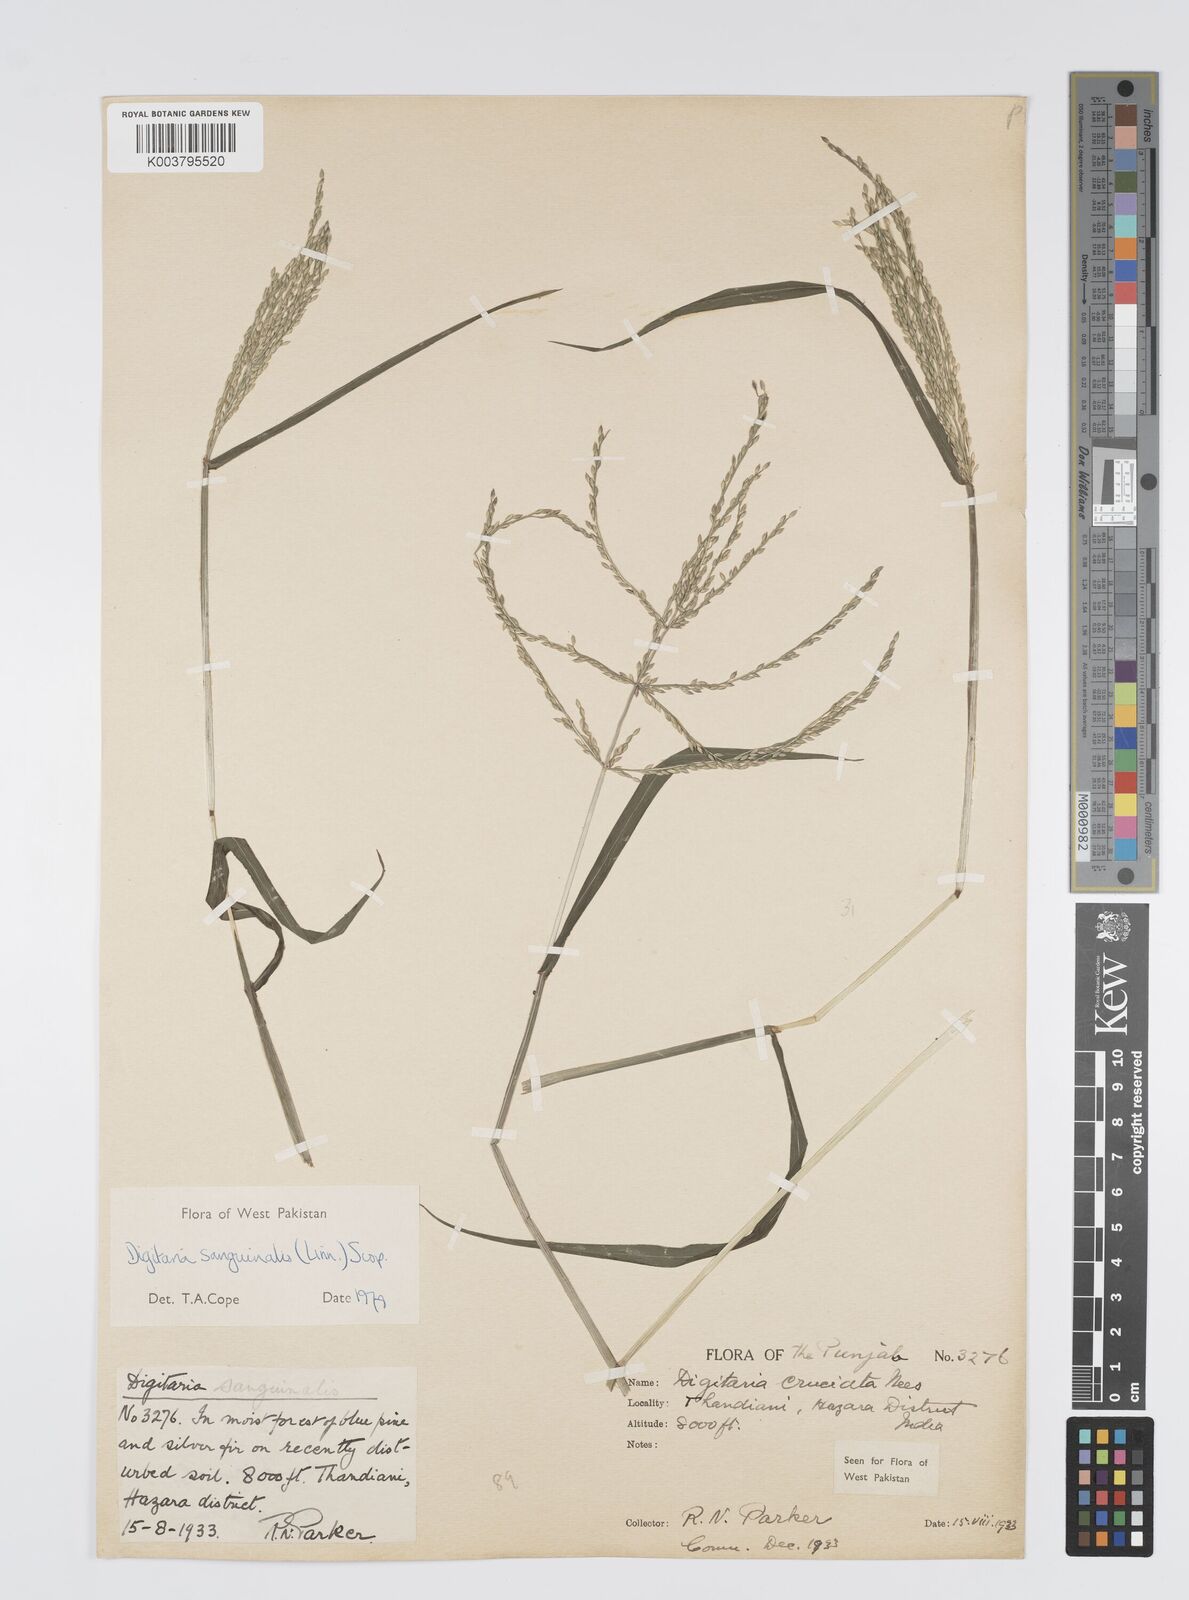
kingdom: Plantae
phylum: Tracheophyta
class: Liliopsida
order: Poales
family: Poaceae
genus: Digitaria
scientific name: Digitaria sanguinalis
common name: Hairy crabgrass
